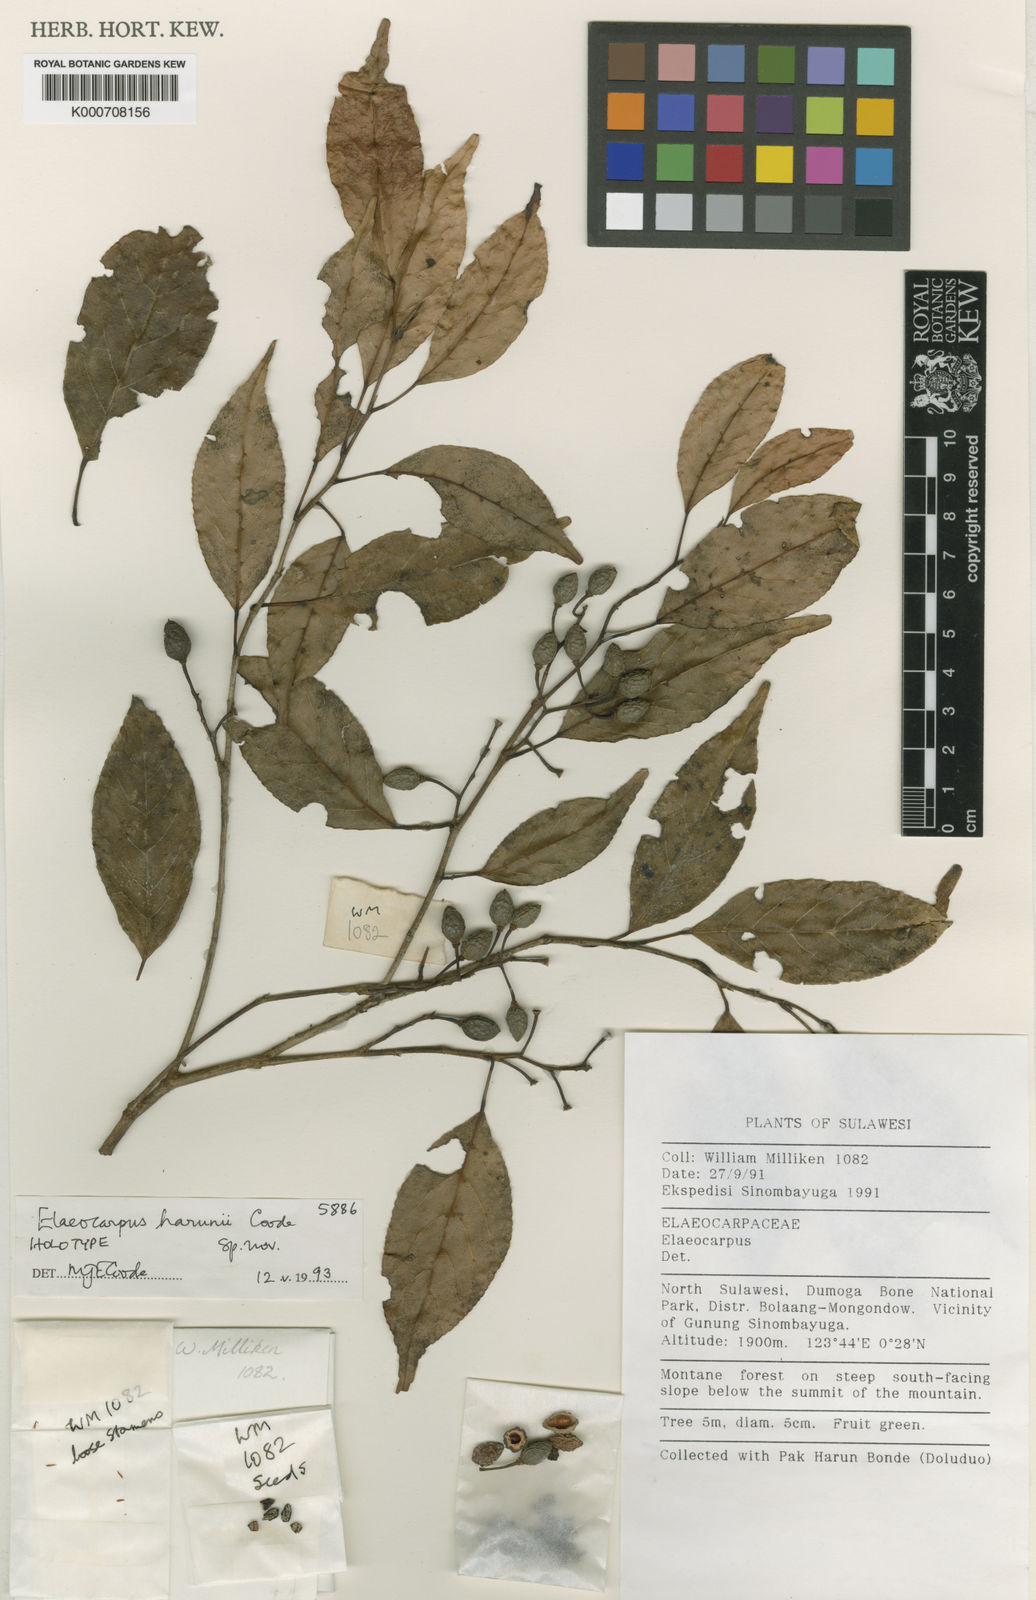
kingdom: Plantae
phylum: Tracheophyta
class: Magnoliopsida
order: Oxalidales
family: Elaeocarpaceae
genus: Elaeocarpus
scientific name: Elaeocarpus harunii
